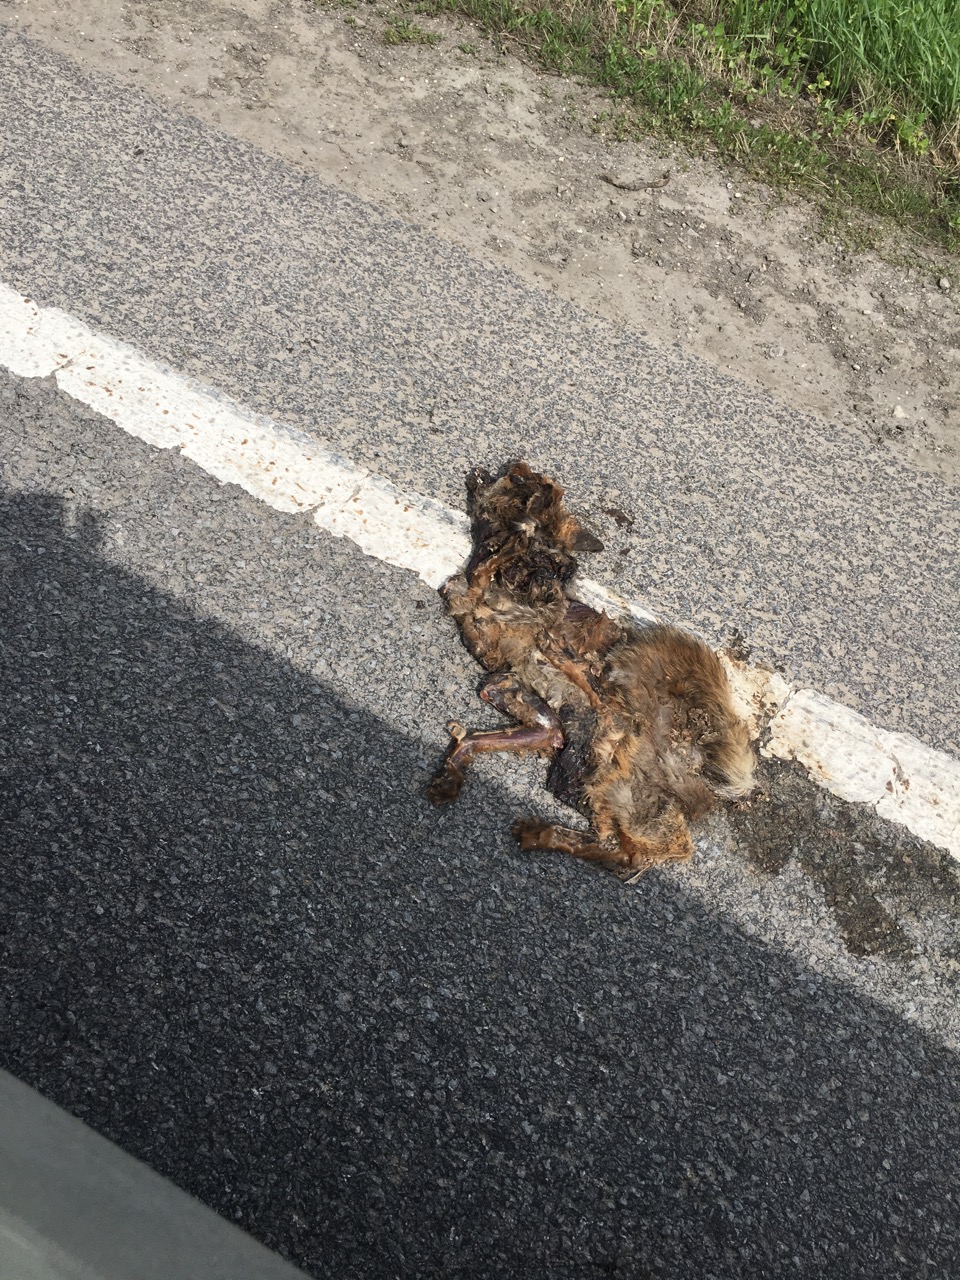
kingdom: Animalia
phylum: Chordata
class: Mammalia
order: Carnivora
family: Canidae
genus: Vulpes
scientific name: Vulpes vulpes
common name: Red fox
